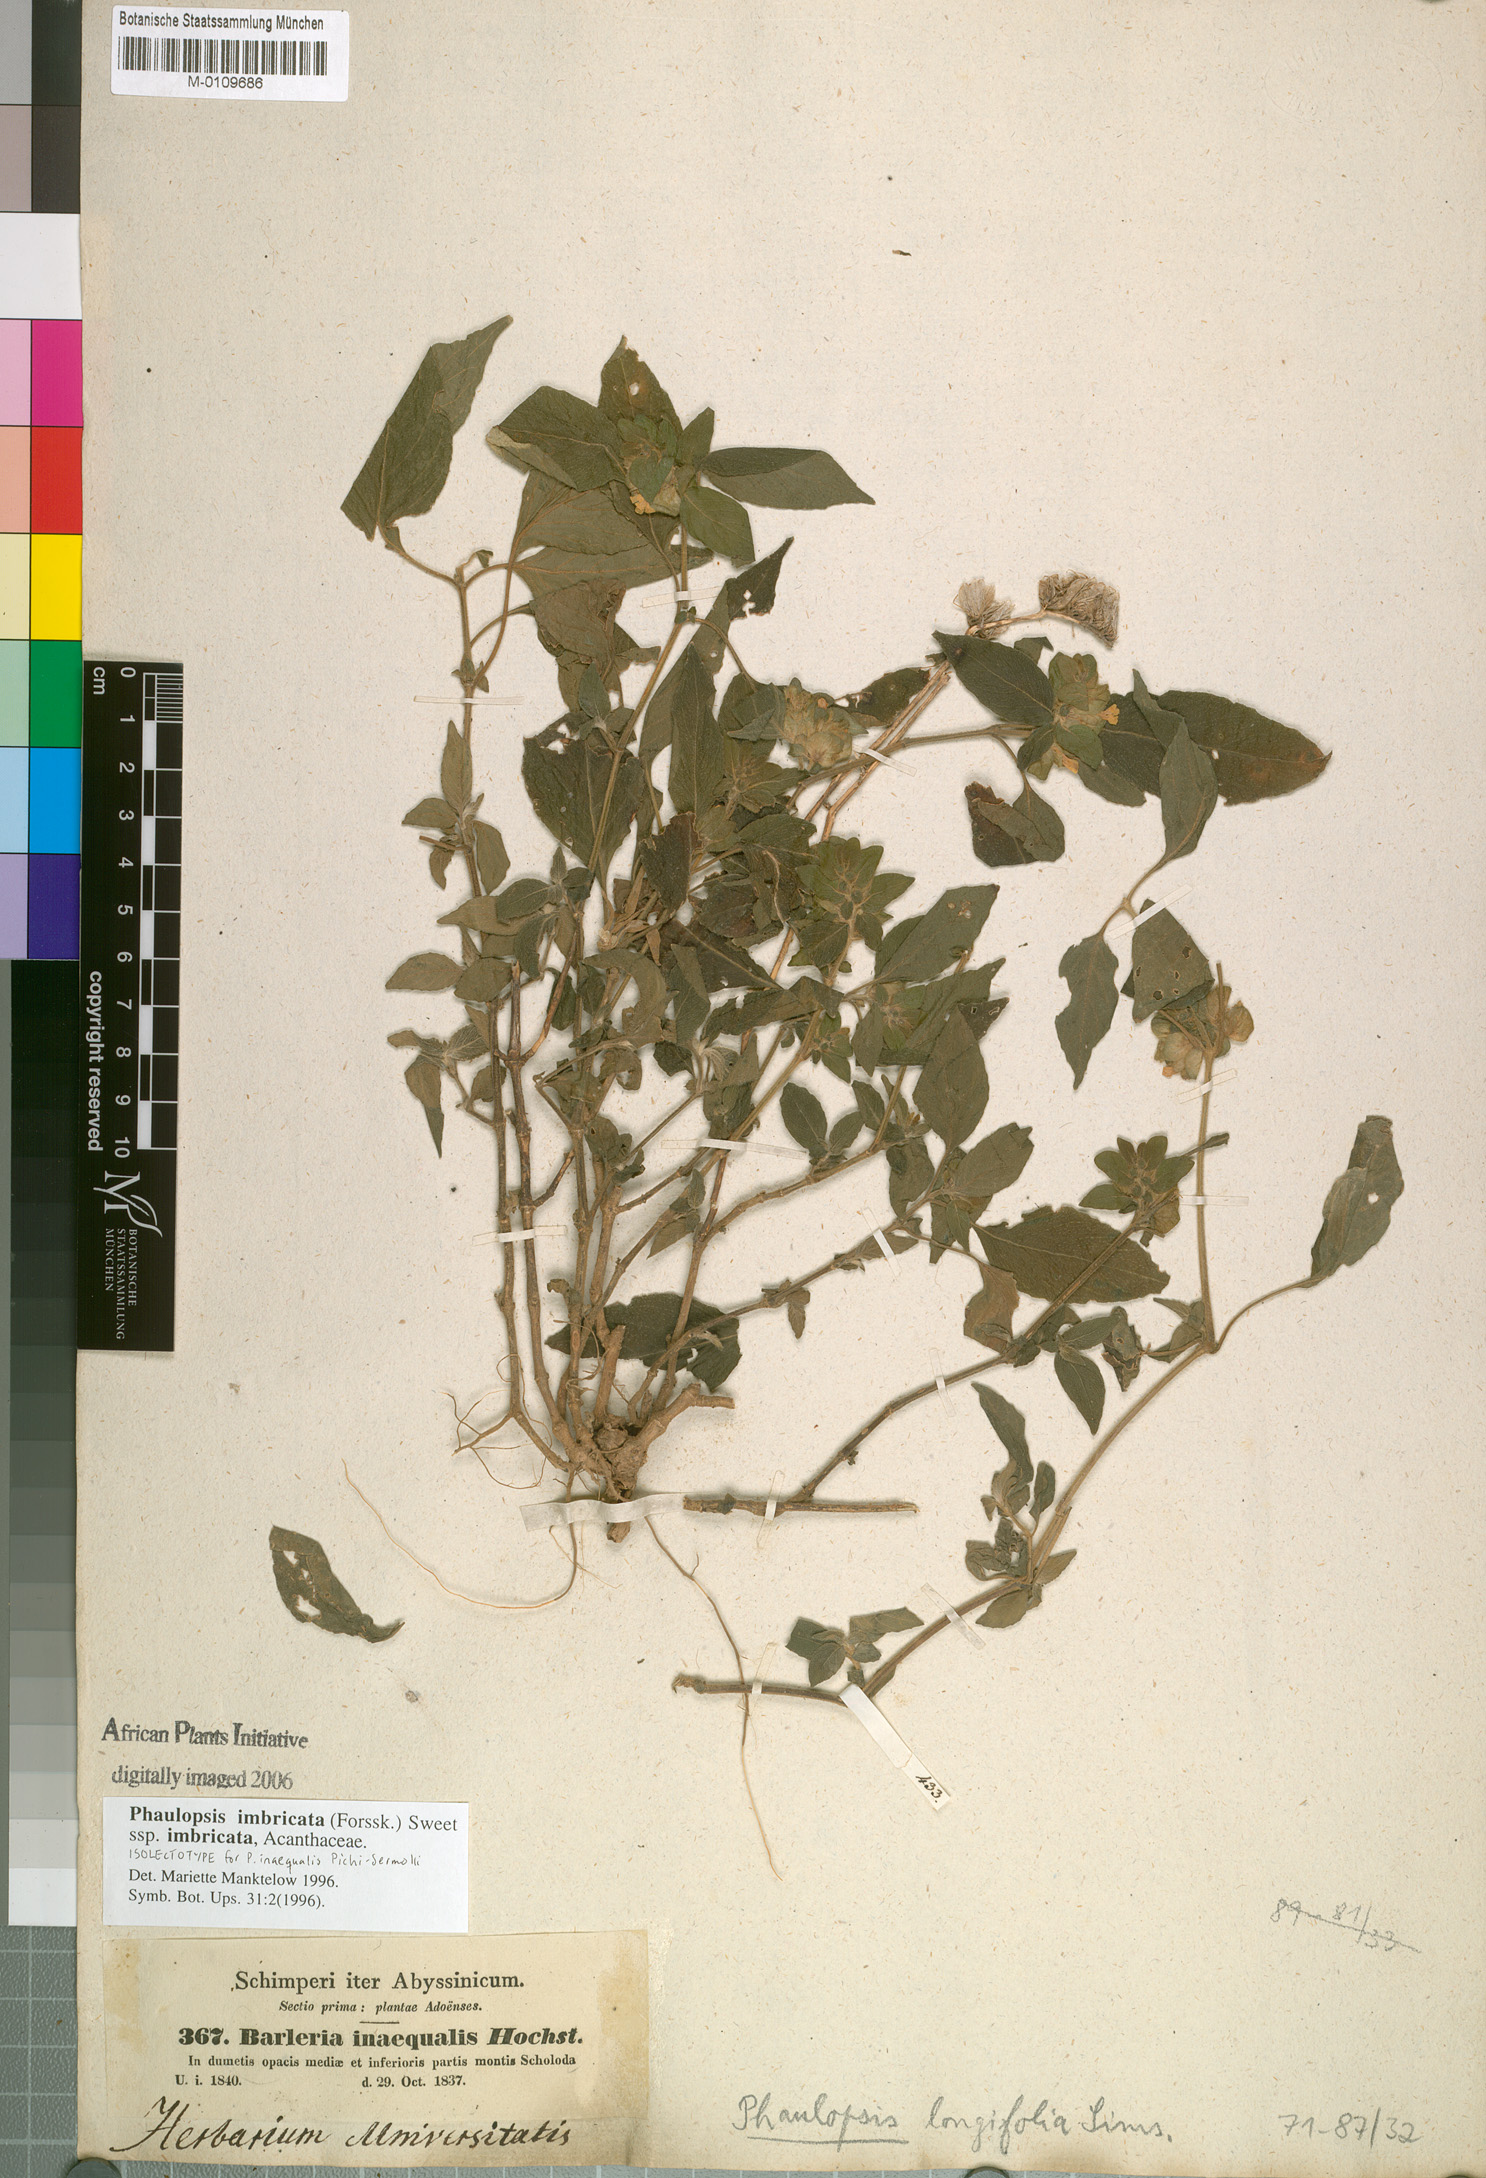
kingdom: Plantae
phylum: Tracheophyta
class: Magnoliopsida
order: Lamiales
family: Acanthaceae
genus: Phaulopsis
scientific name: Phaulopsis imbricata
